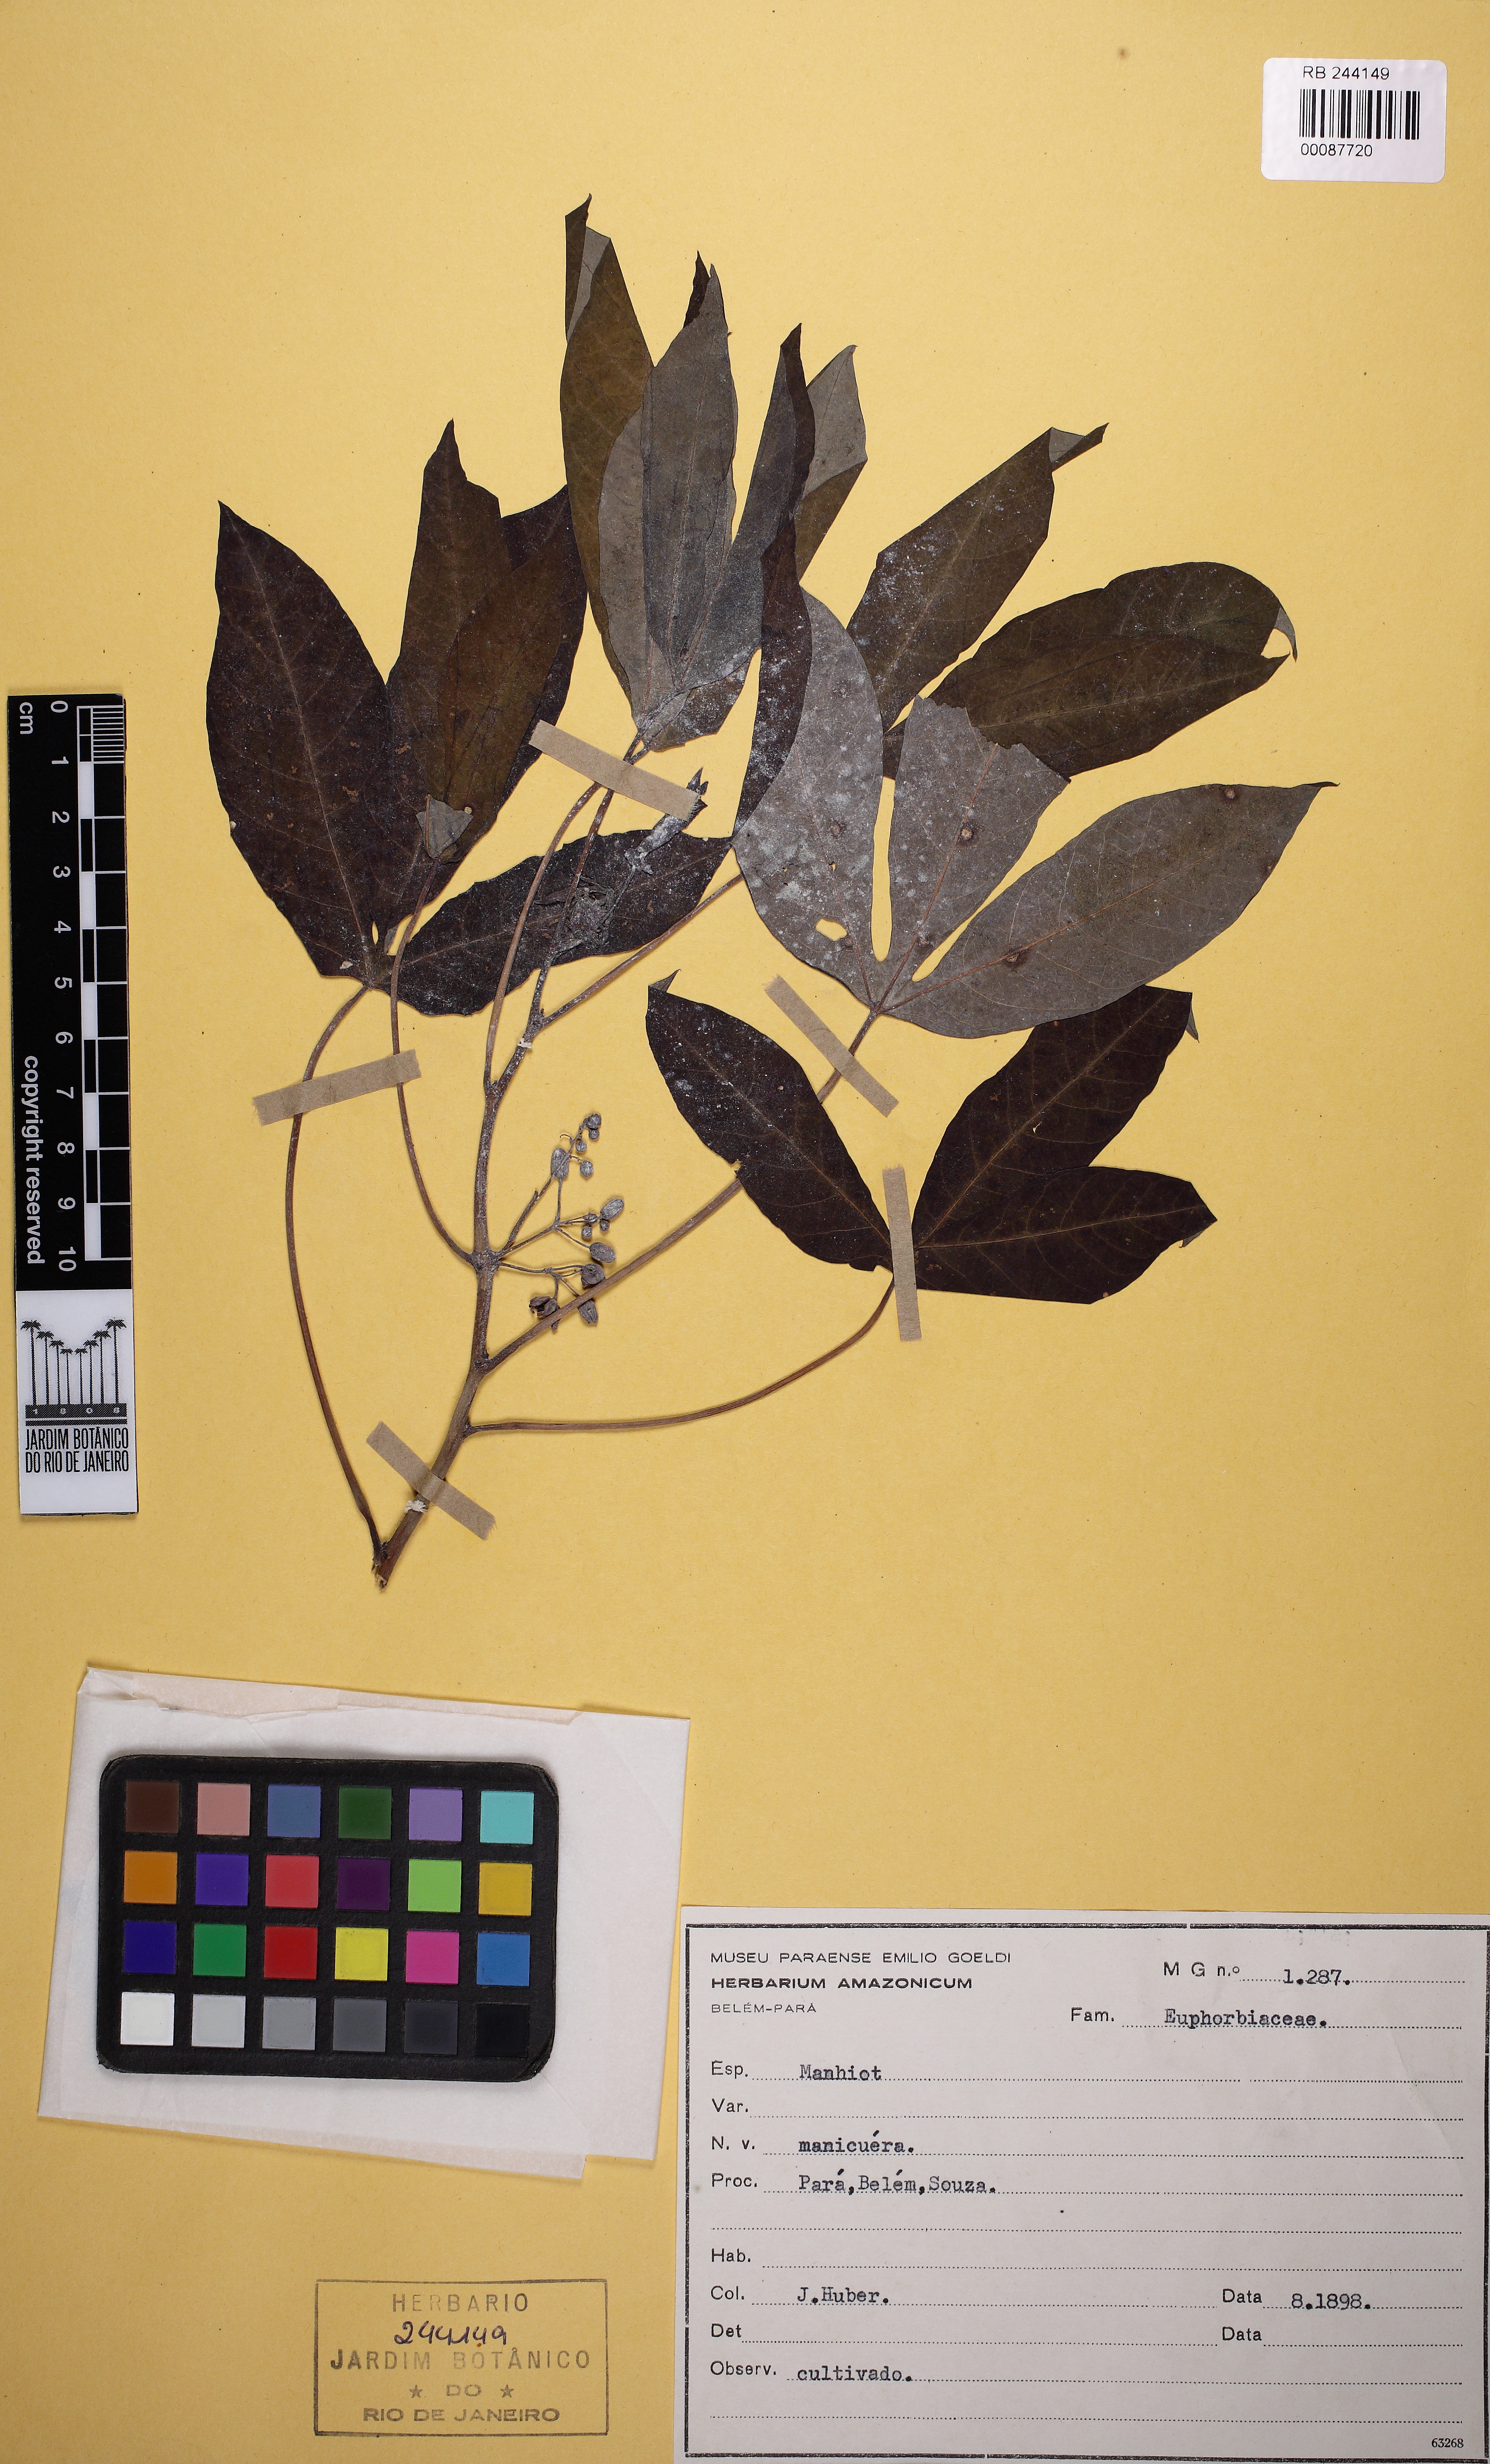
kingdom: Plantae
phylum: Tracheophyta
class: Magnoliopsida
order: Malpighiales
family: Euphorbiaceae
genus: Manihot
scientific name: Manihot esculenta
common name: Cassava
